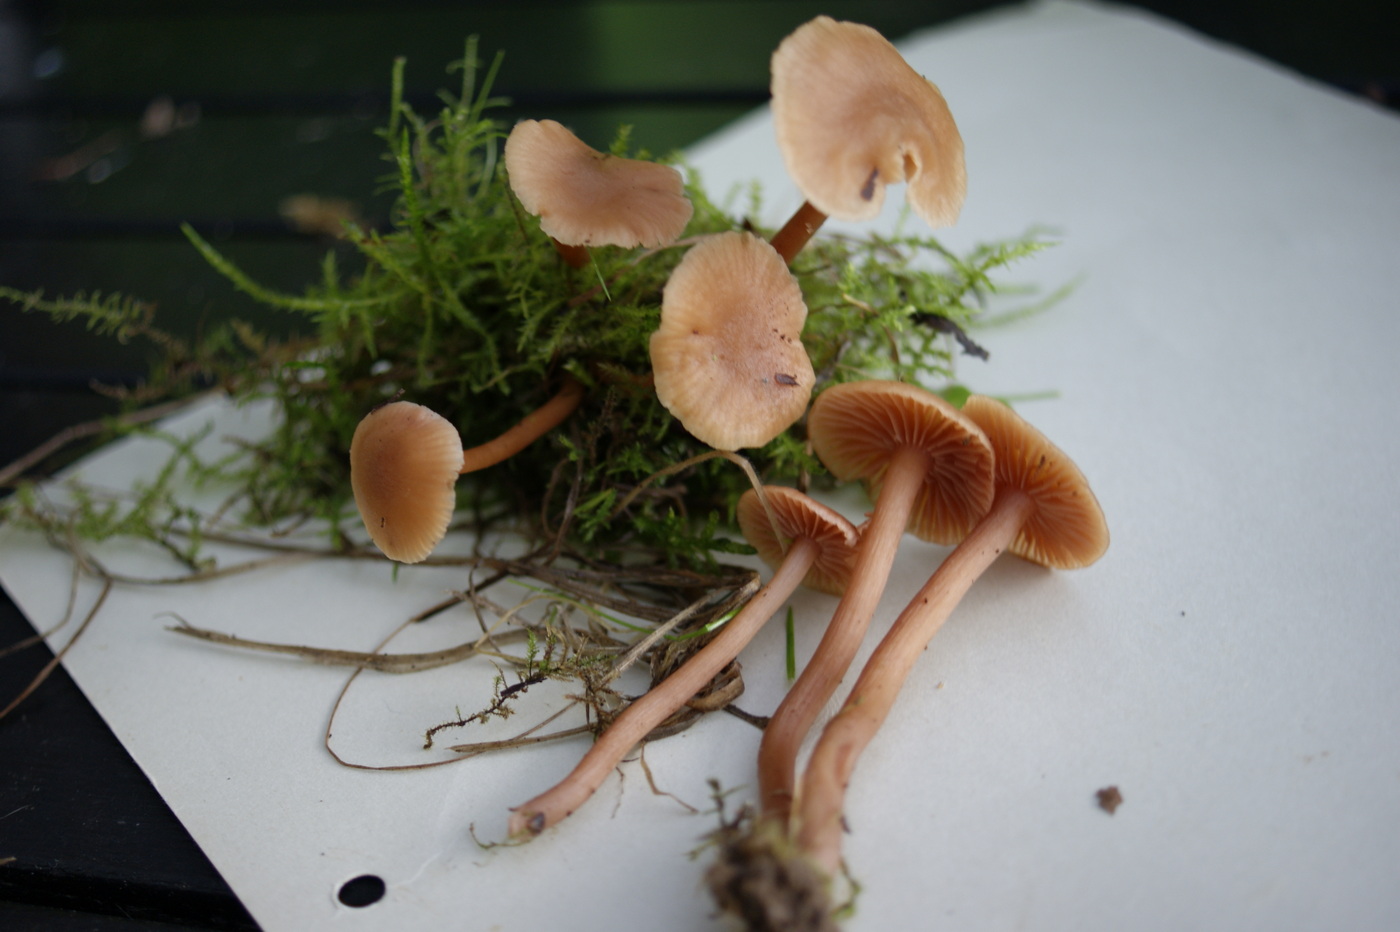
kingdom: Fungi
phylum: Basidiomycota
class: Agaricomycetes
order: Agaricales
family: Hydnangiaceae
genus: Laccaria
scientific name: Laccaria laccata
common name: rød ametysthat
